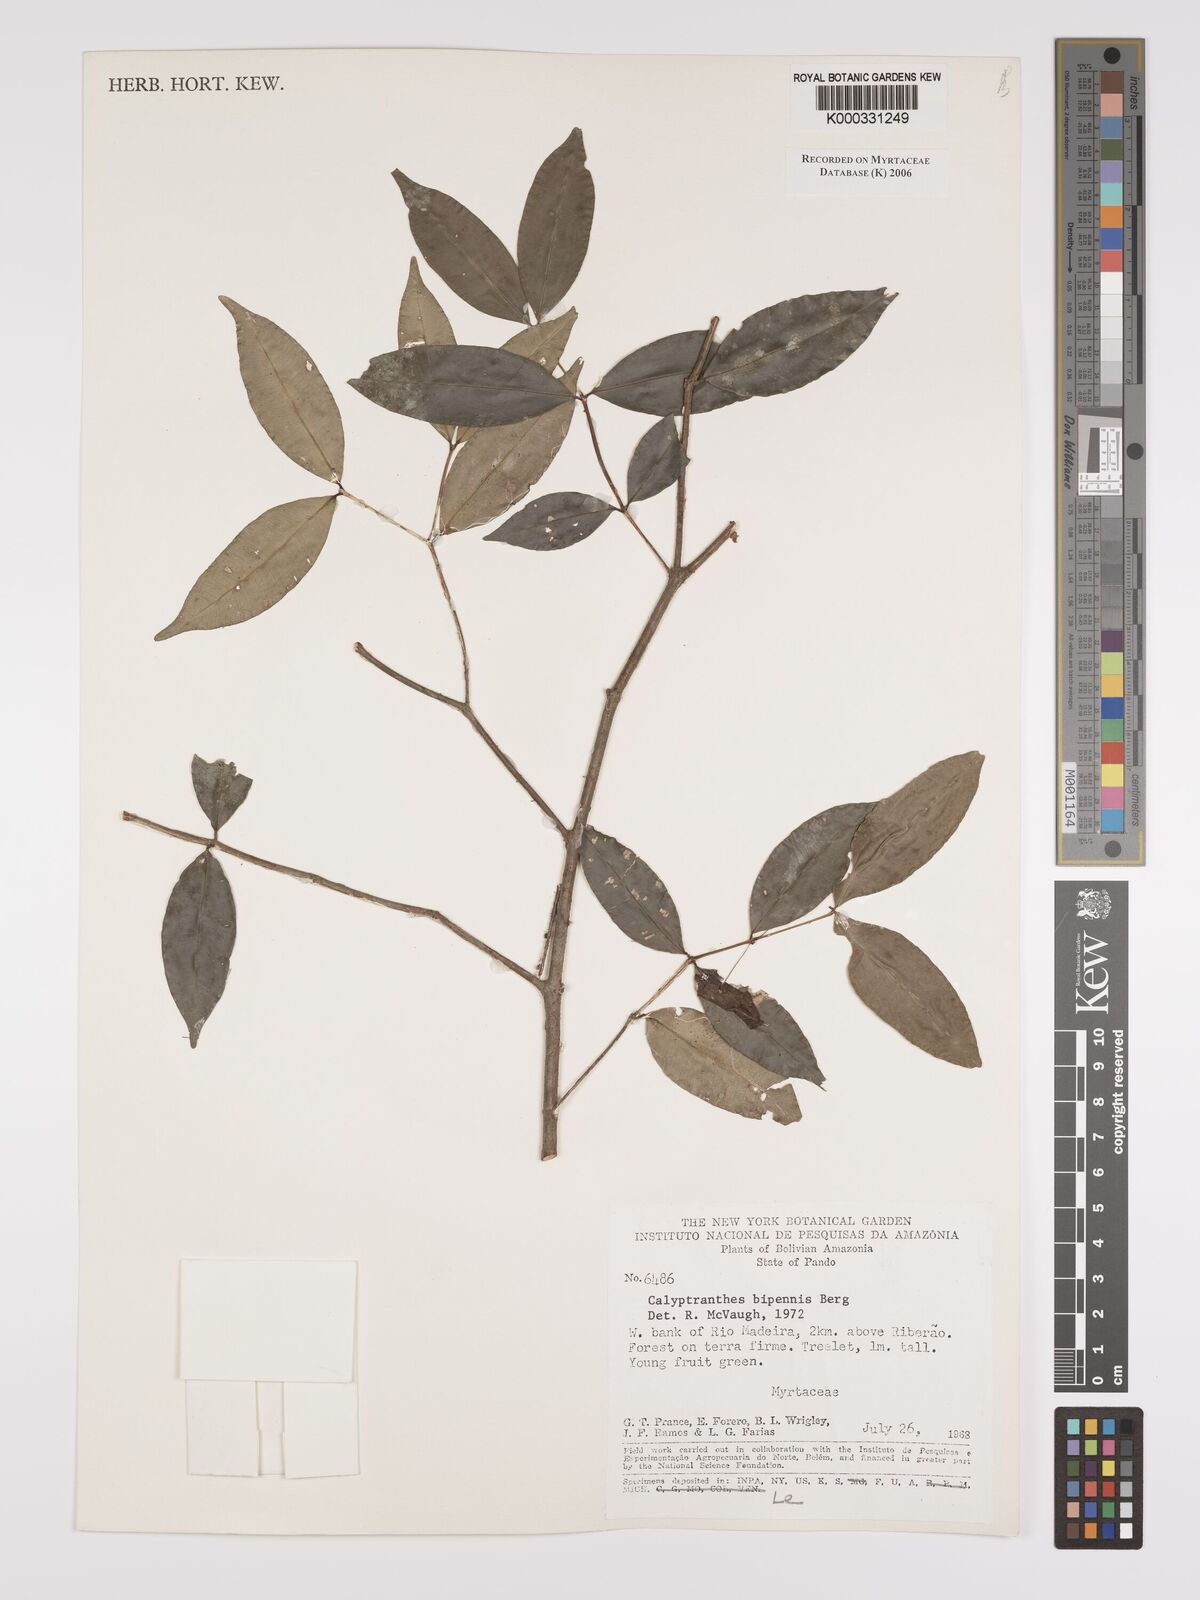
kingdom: Plantae
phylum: Tracheophyta
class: Magnoliopsida
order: Myrtales
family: Myrtaceae
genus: Myrcia
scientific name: Myrcia tenuiflora
